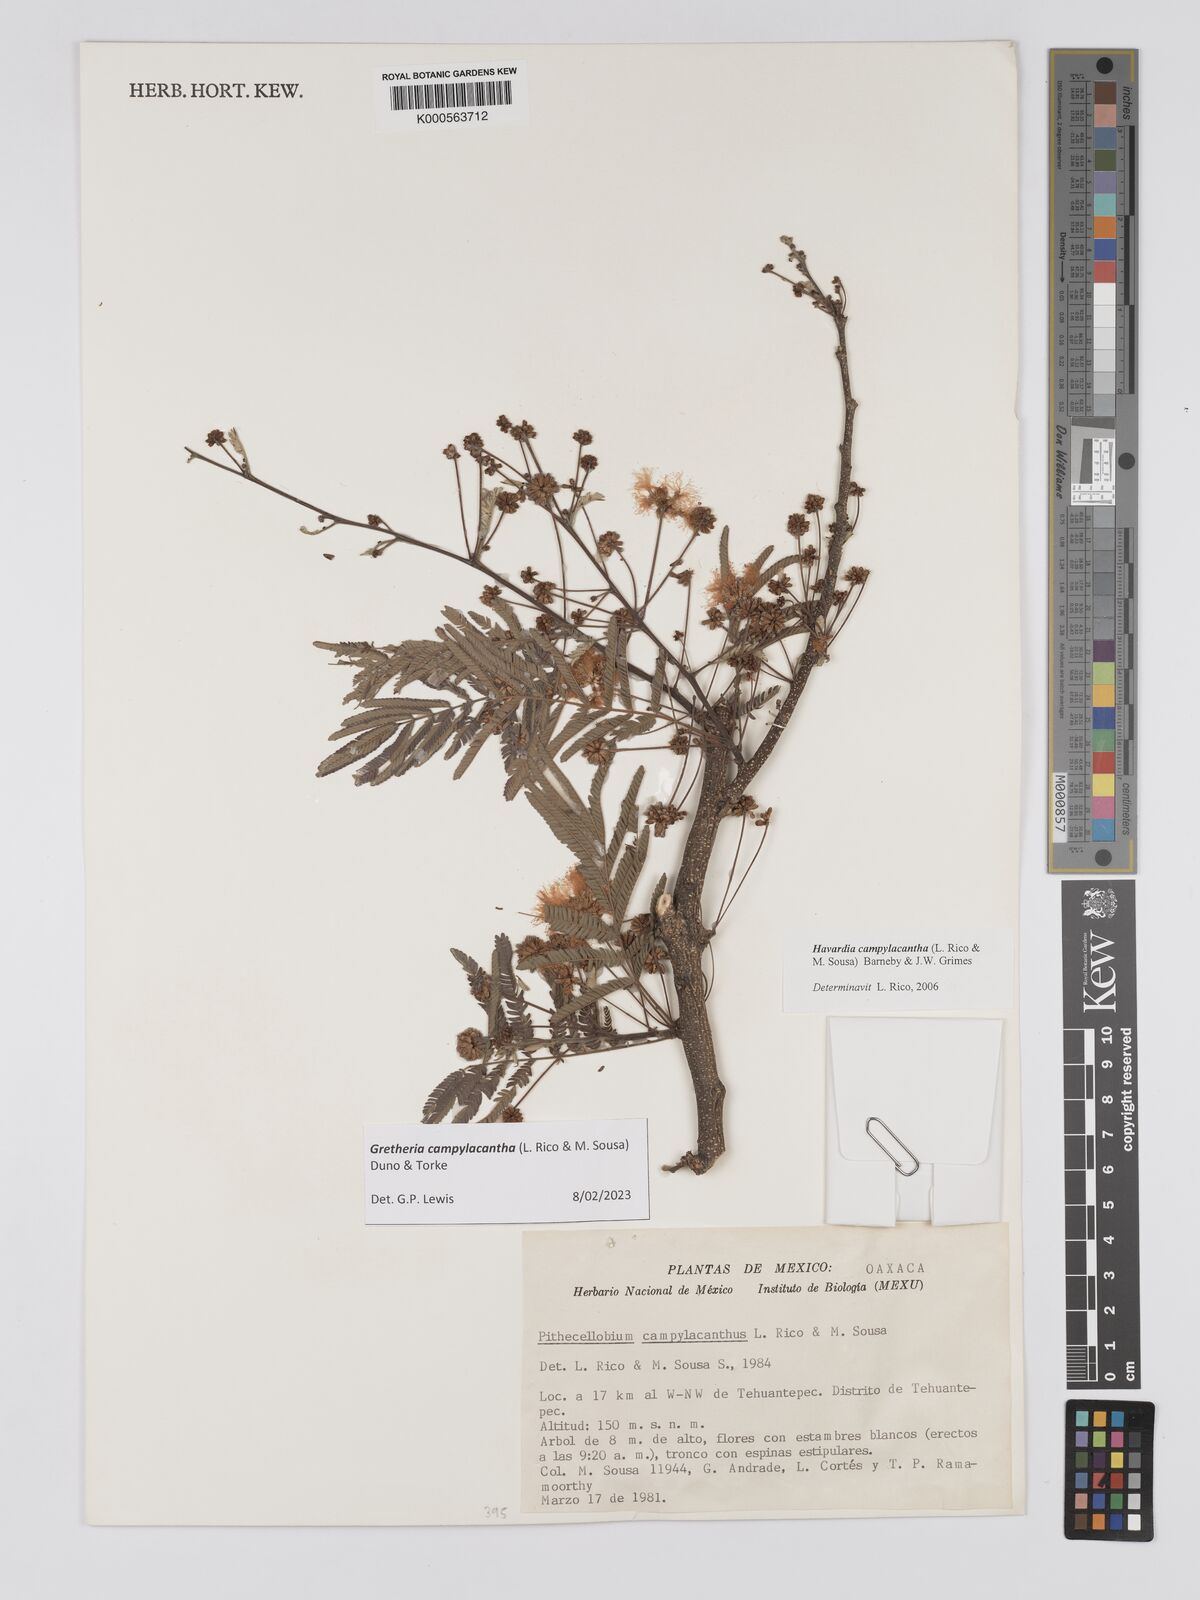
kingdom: Plantae
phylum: Tracheophyta
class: Magnoliopsida
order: Fabales
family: Fabaceae
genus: Havardia
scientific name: Havardia campylacantha
